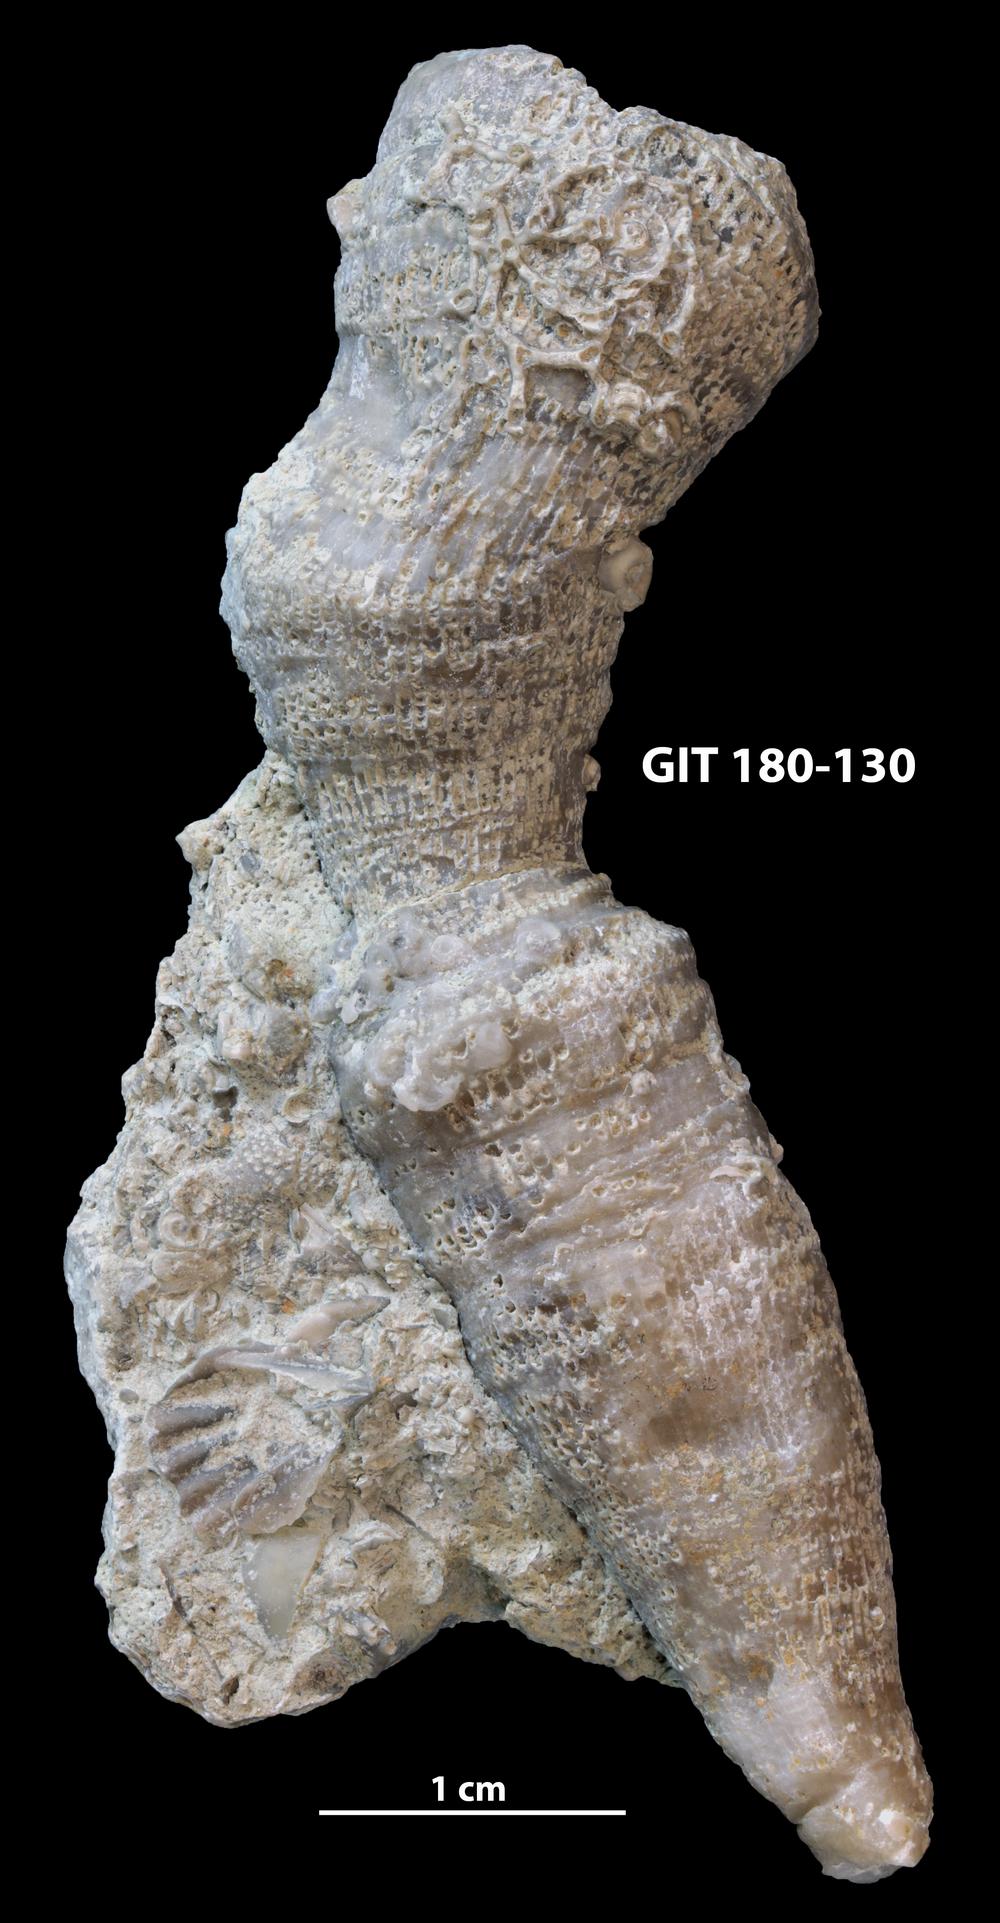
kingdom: Animalia
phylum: Cnidaria
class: Anthozoa
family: Auloporidae
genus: Aulopora
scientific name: Aulopora necopina
